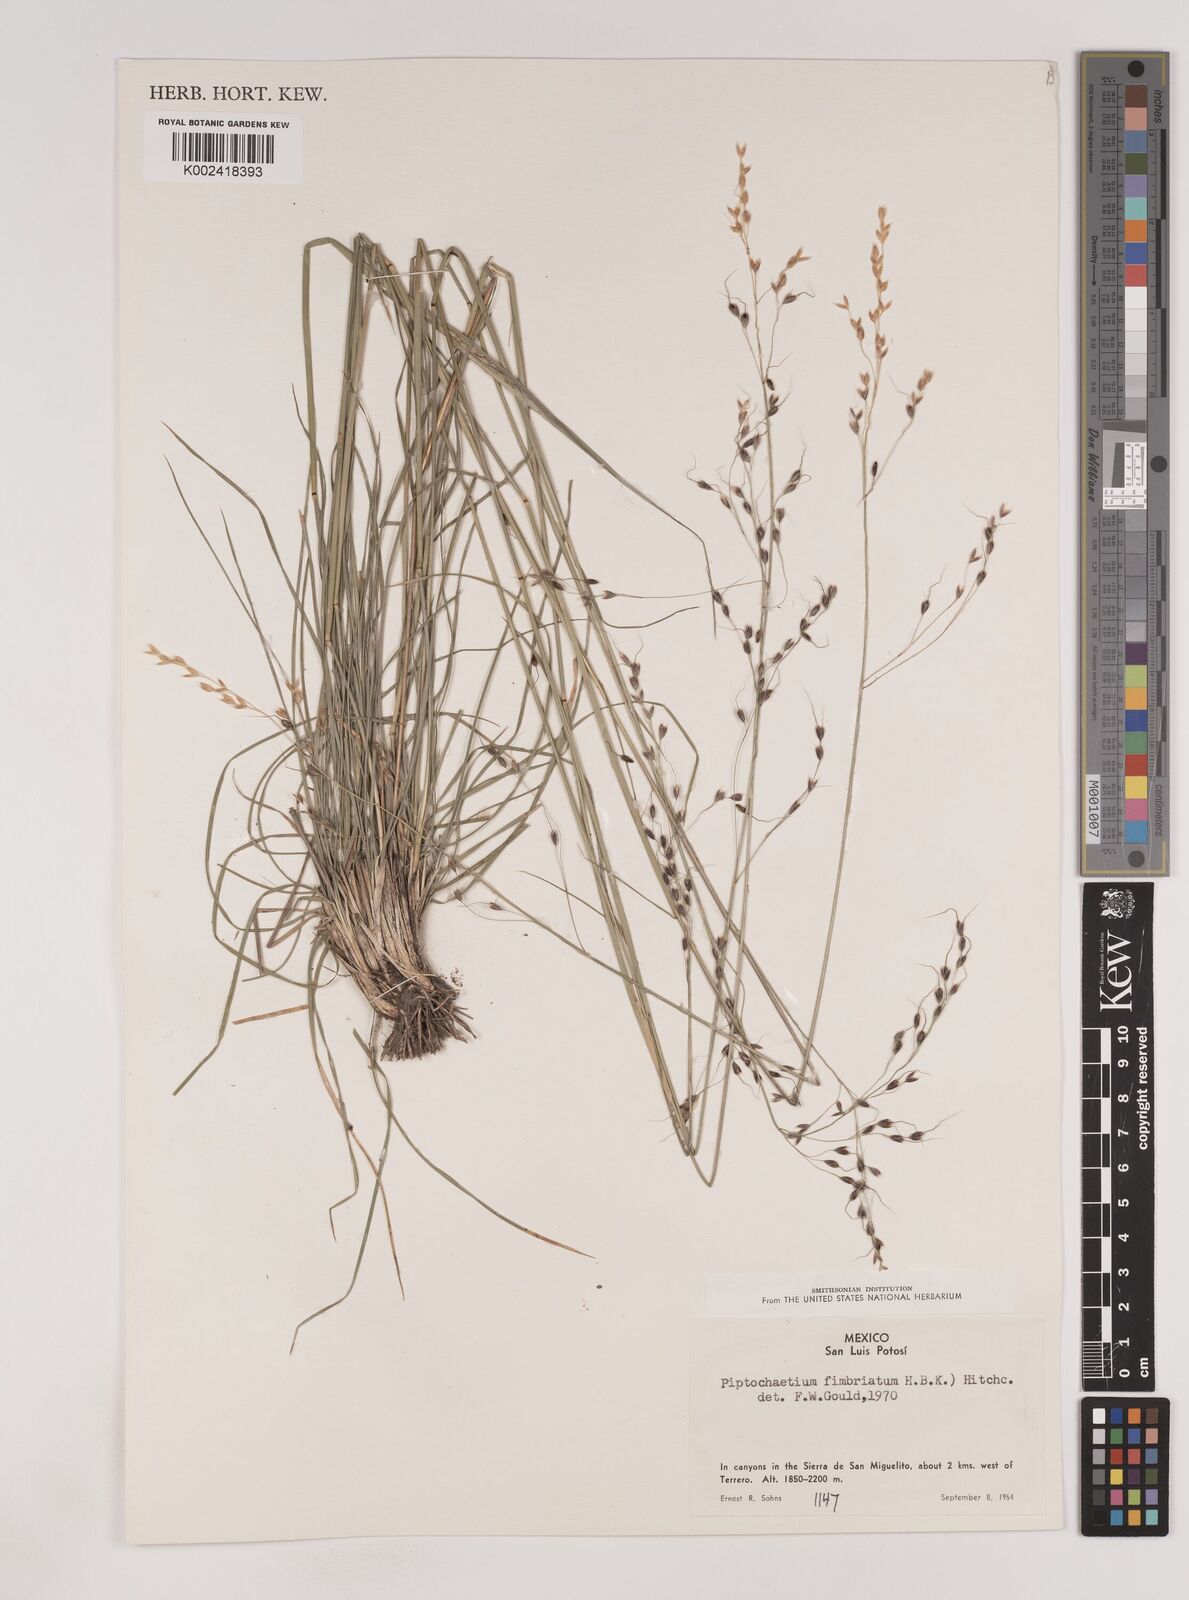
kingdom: Plantae
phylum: Tracheophyta
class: Liliopsida
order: Poales
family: Poaceae
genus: Piptochaetium
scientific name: Piptochaetium fimbriatum
